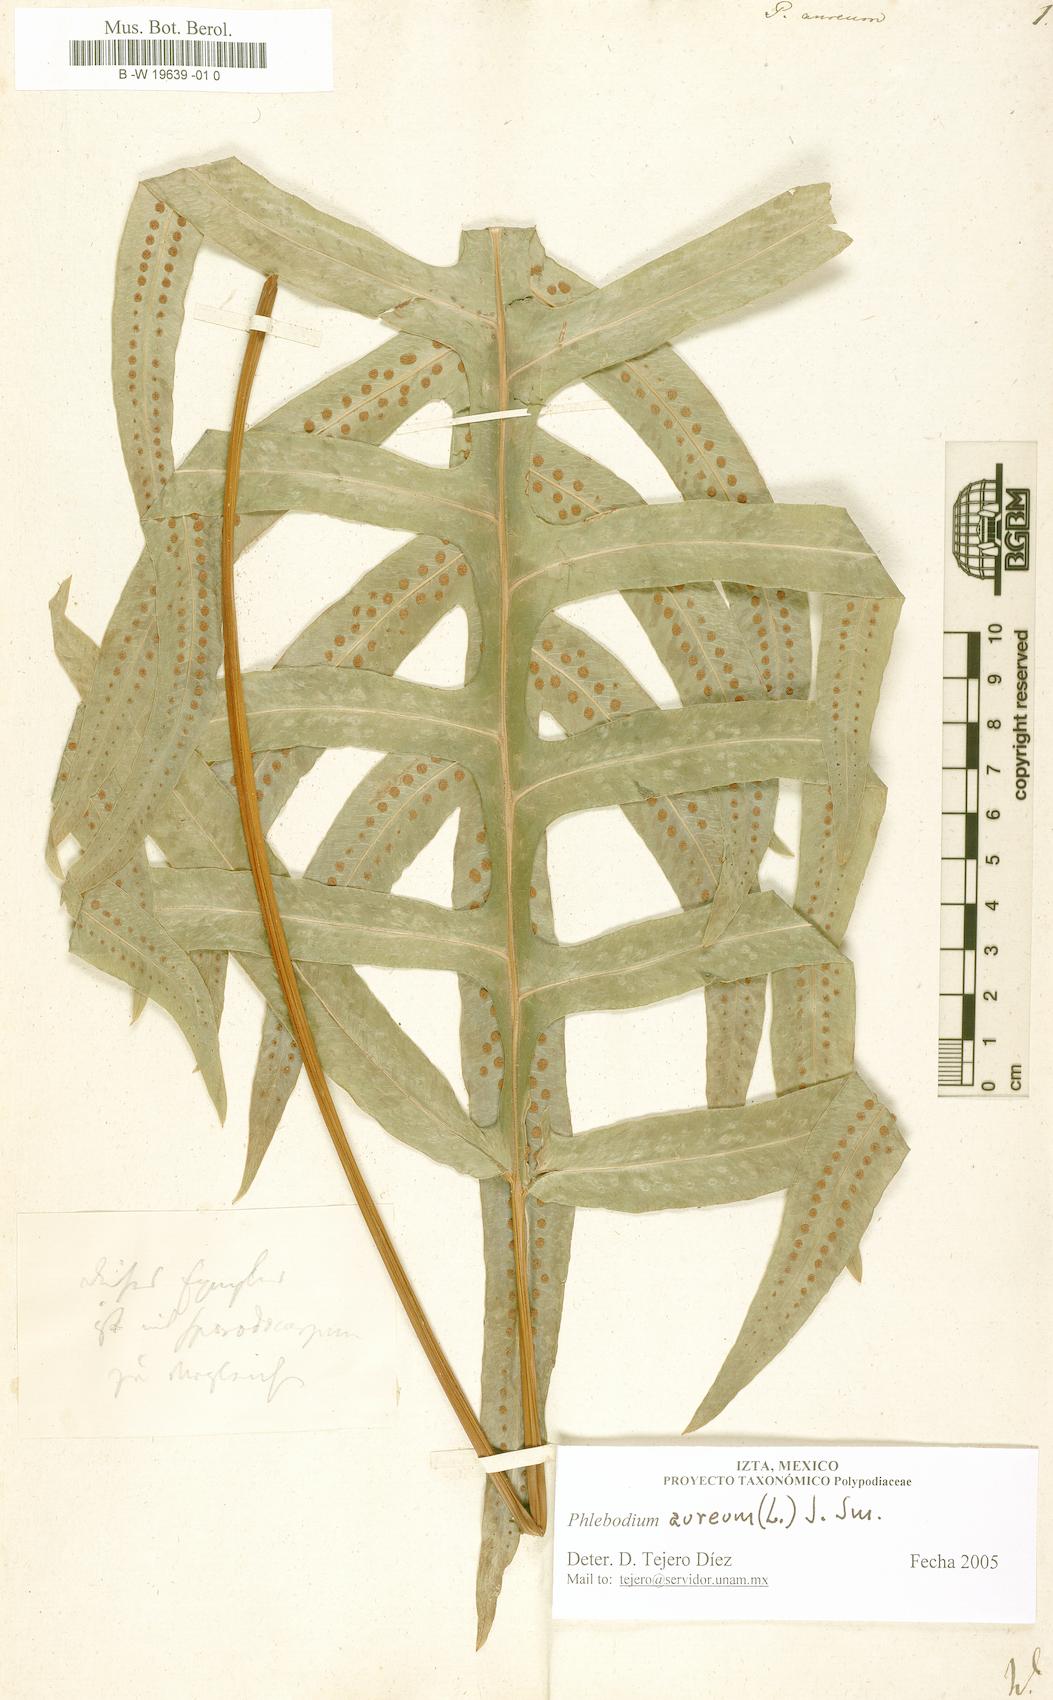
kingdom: Plantae
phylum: Tracheophyta
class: Polypodiopsida
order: Polypodiales
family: Polypodiaceae
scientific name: Polypodiaceae
